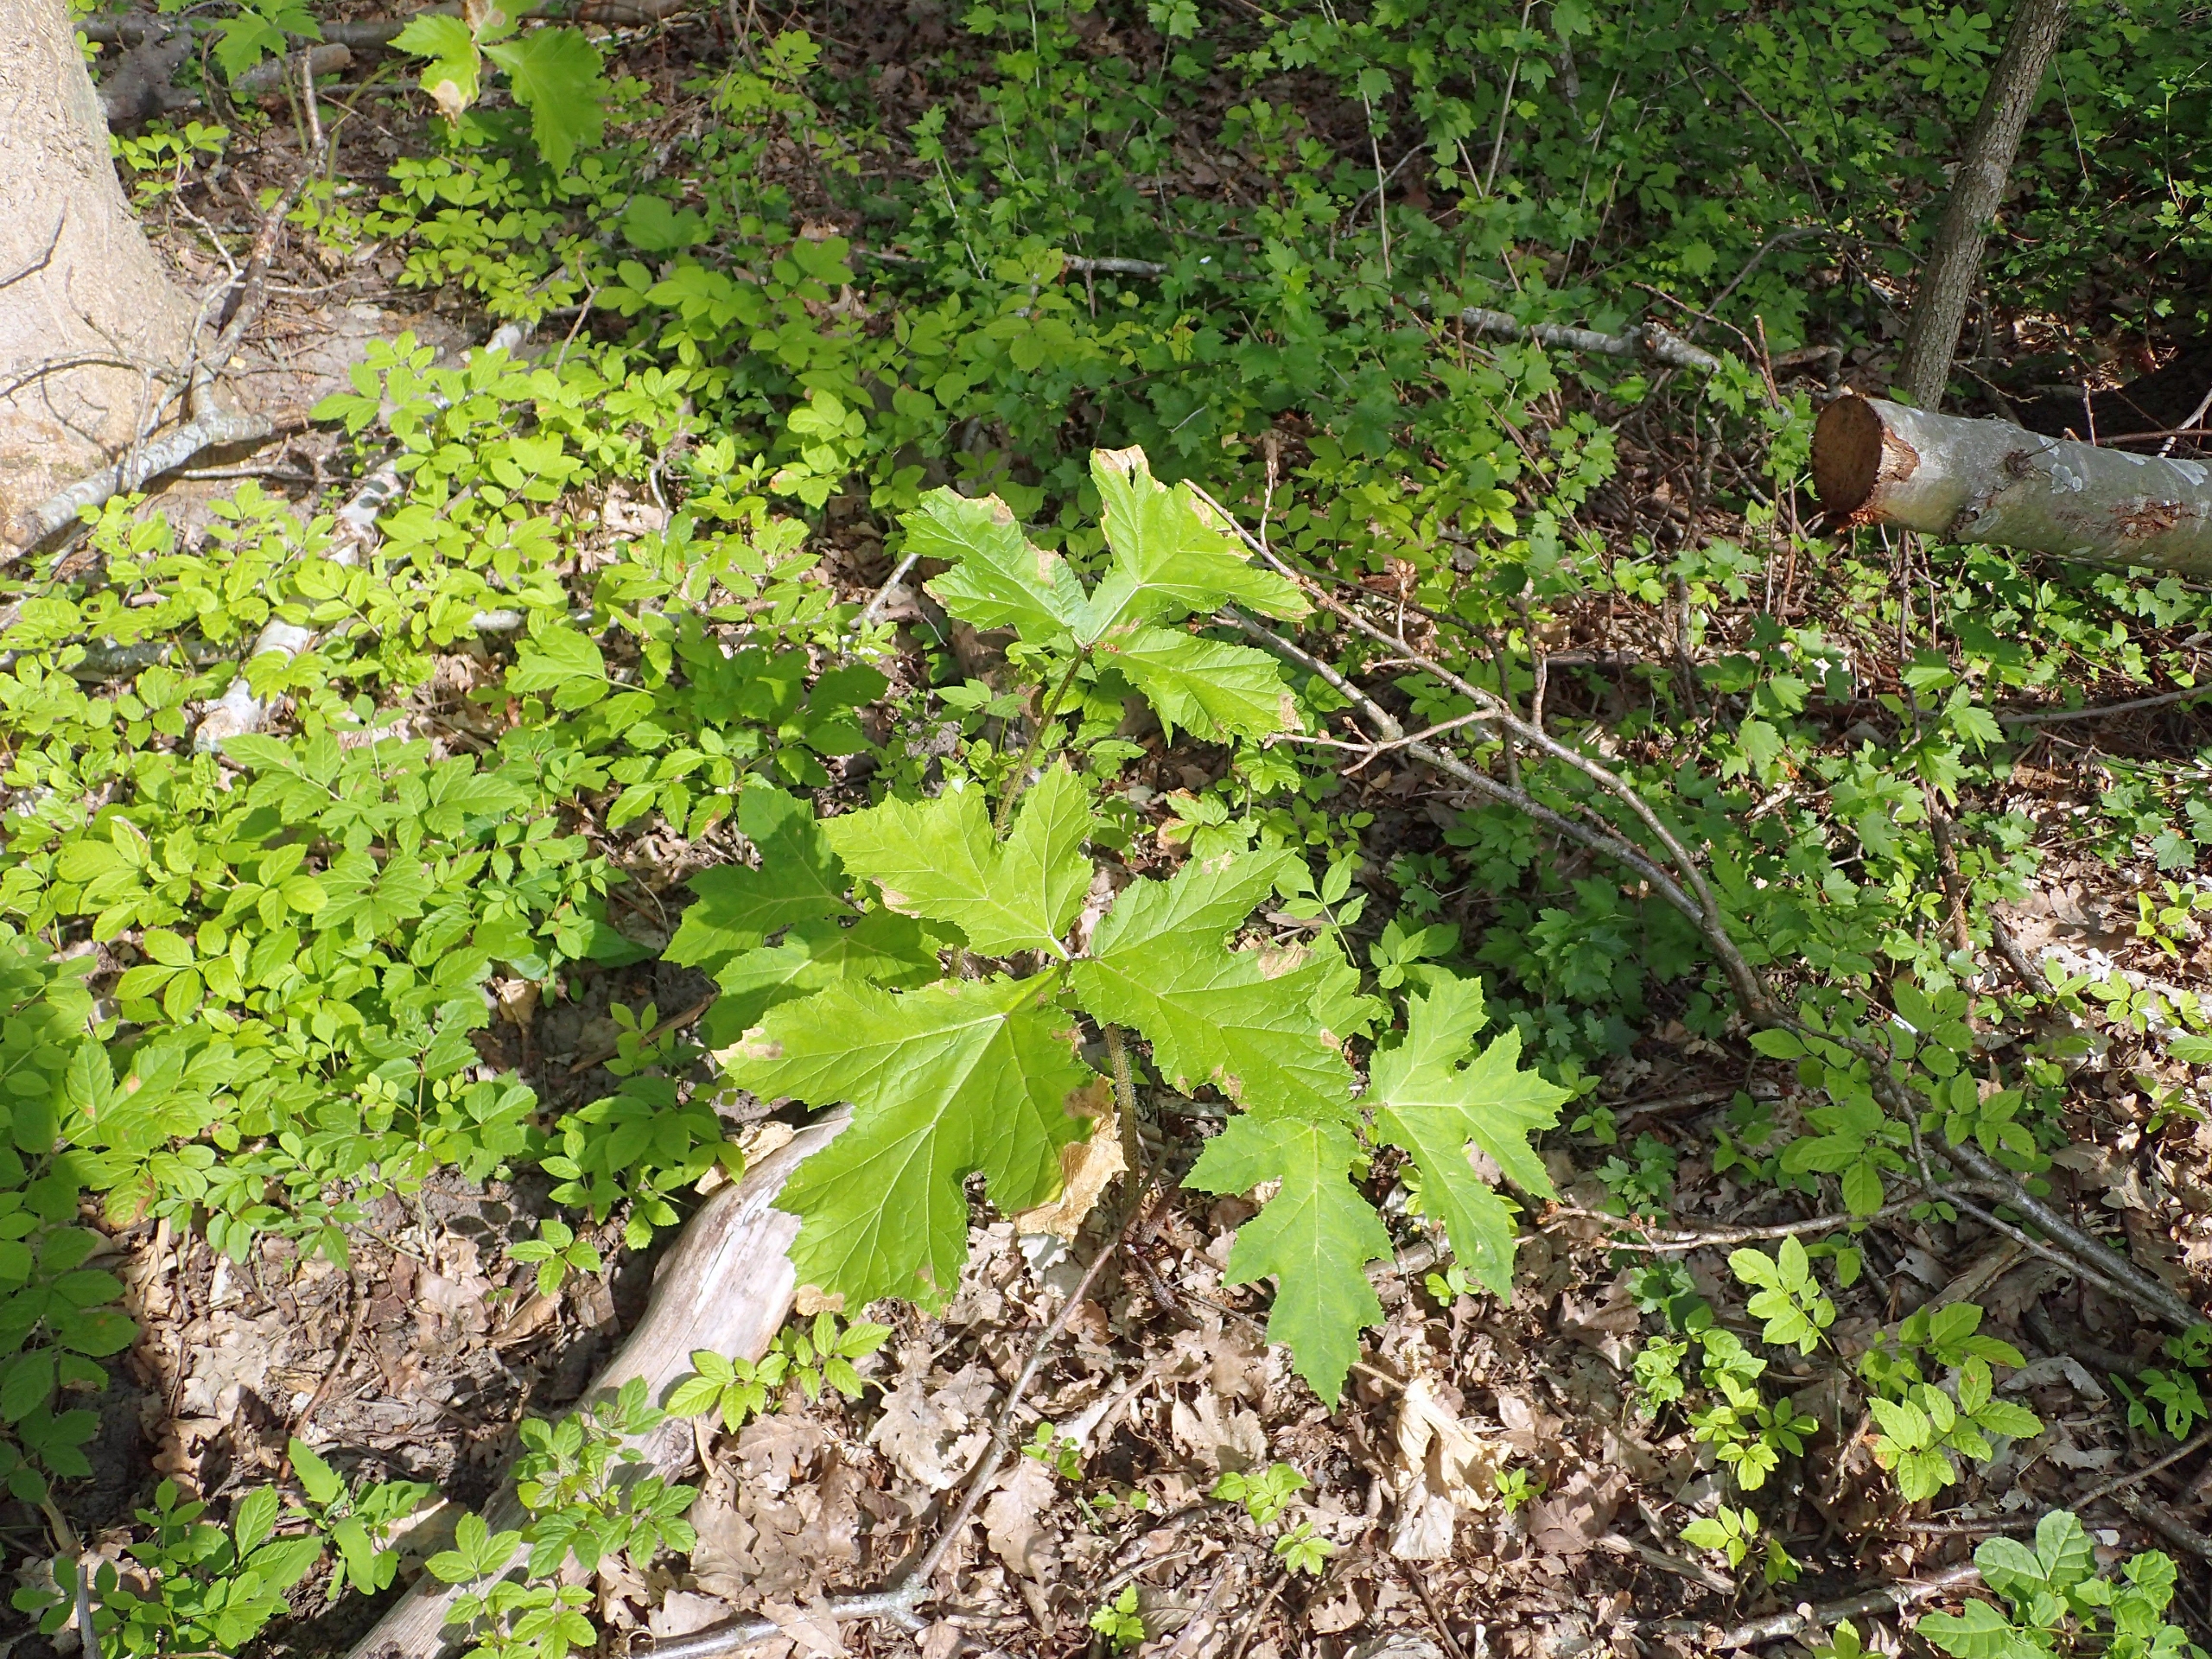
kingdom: Plantae
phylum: Tracheophyta
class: Magnoliopsida
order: Apiales
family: Apiaceae
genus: Heracleum
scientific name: Heracleum mantegazzianum
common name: Kæmpe-bjørneklo
